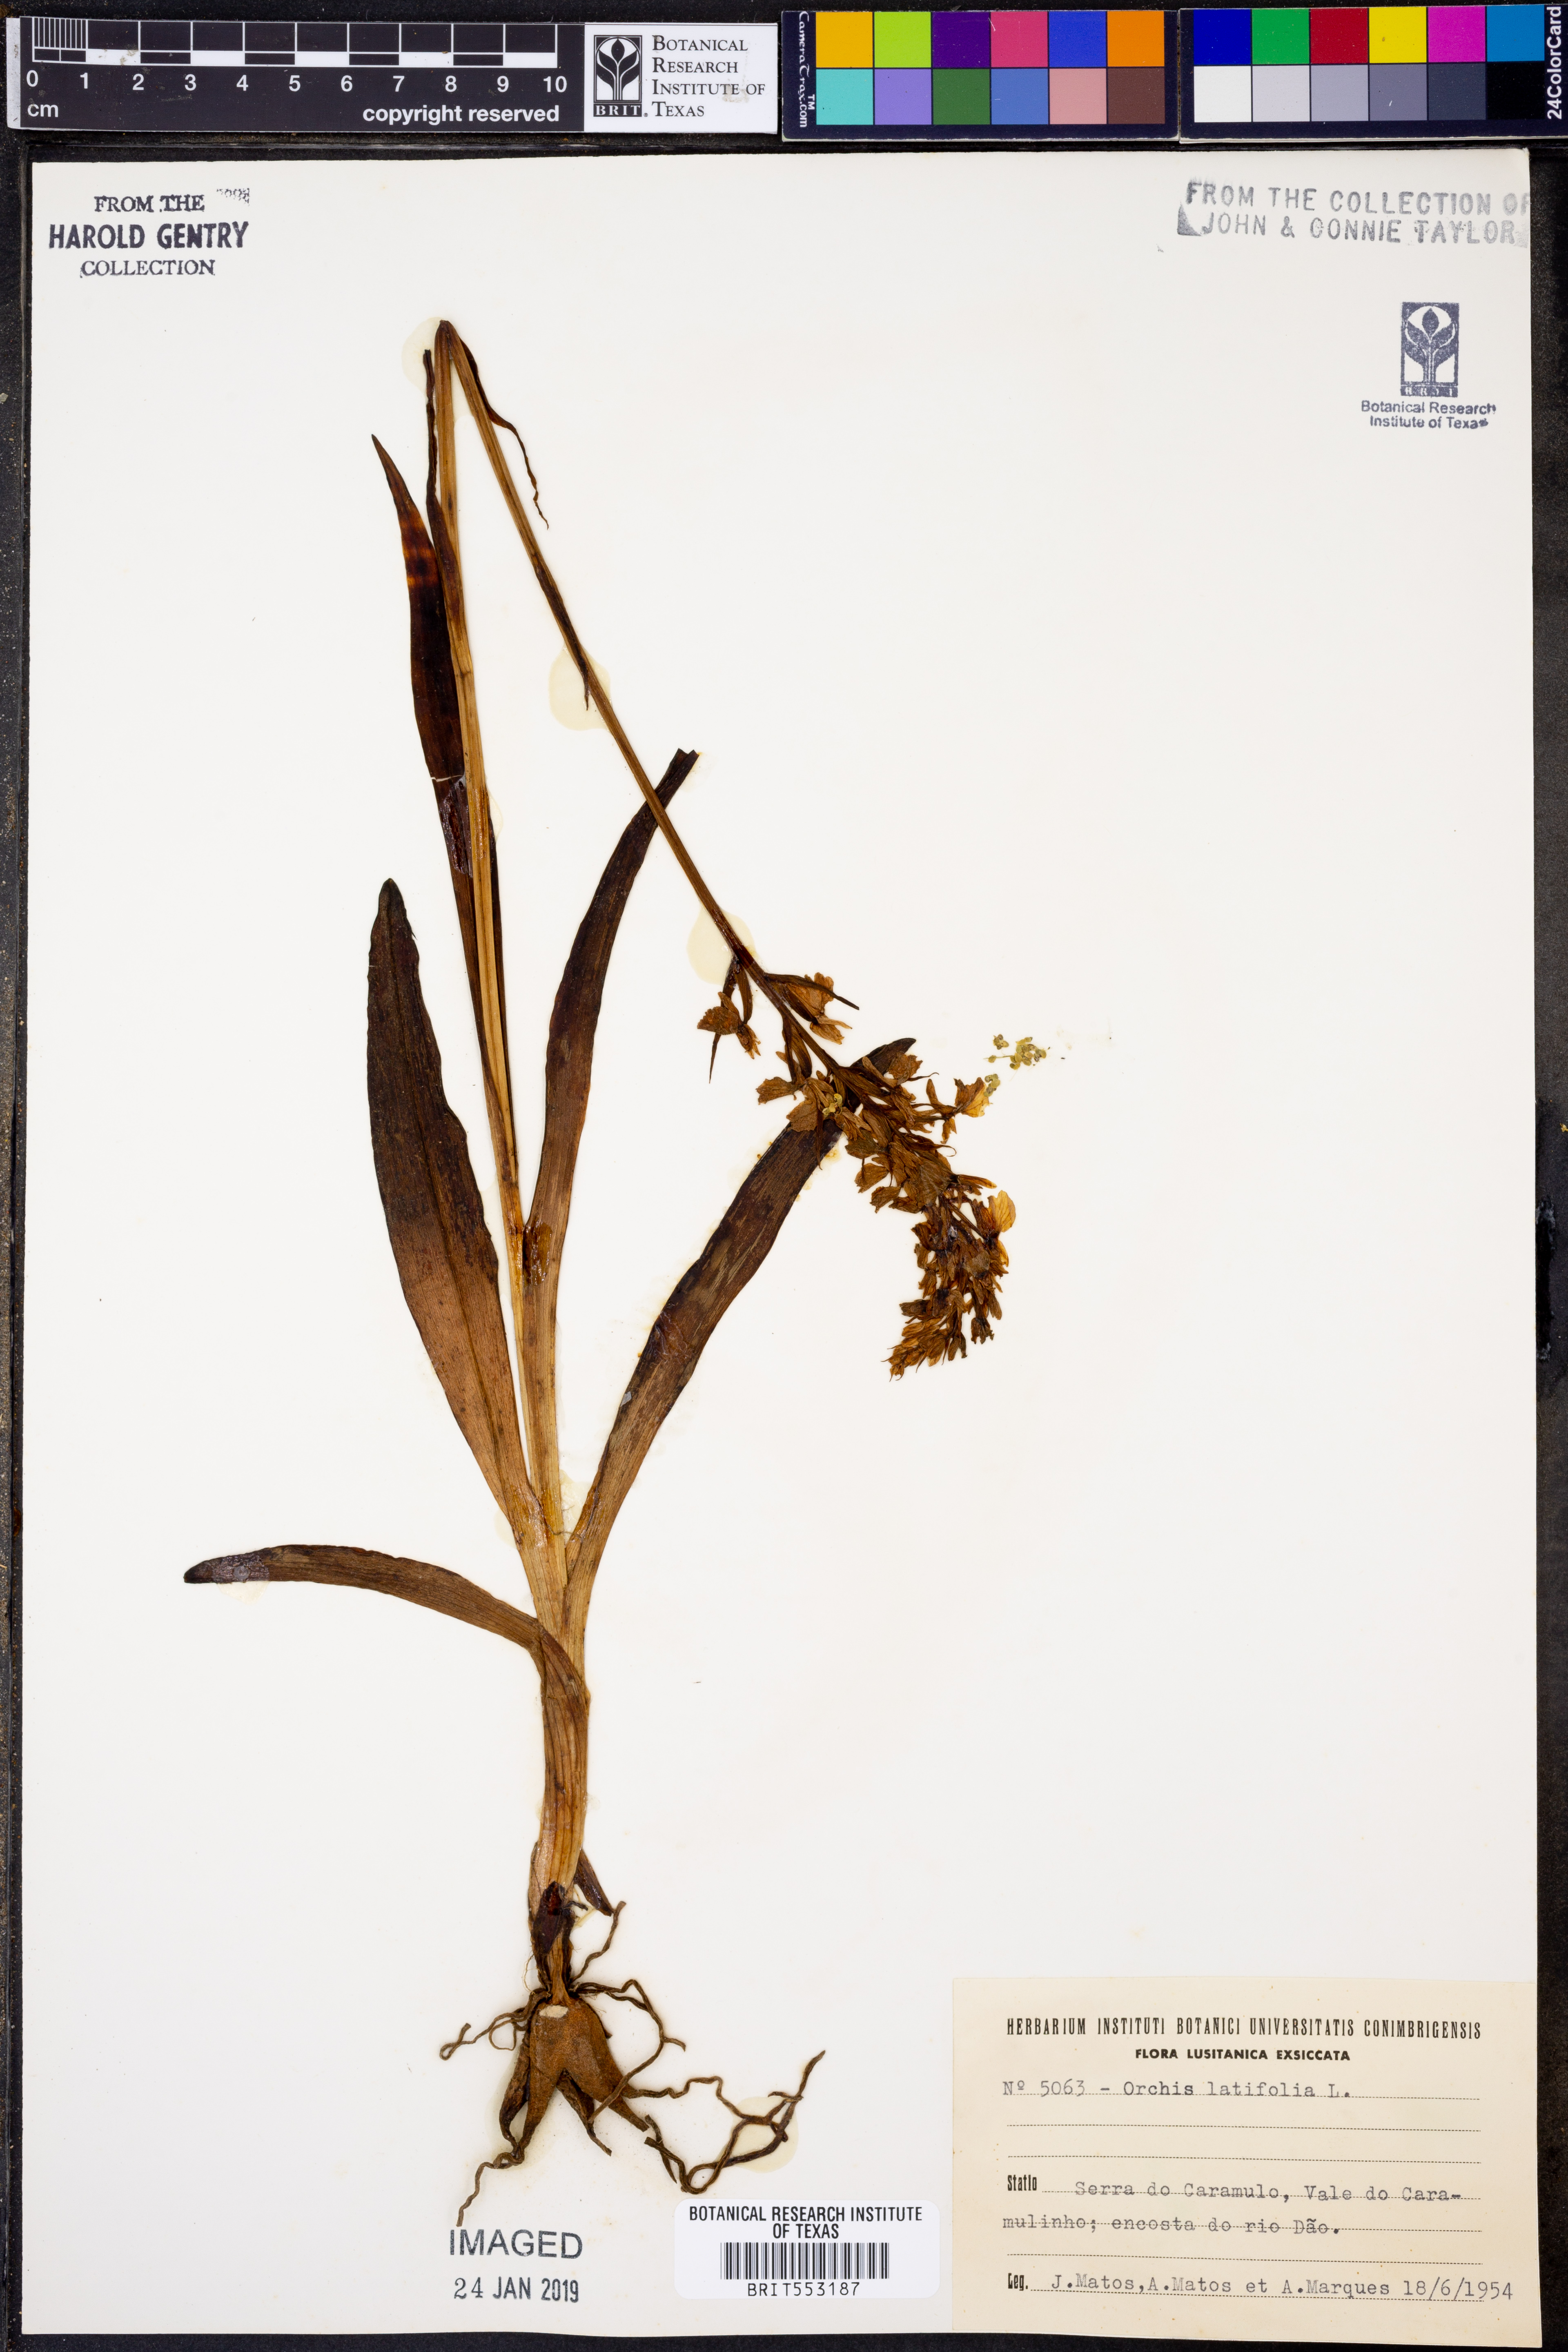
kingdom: Plantae
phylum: Tracheophyta
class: Liliopsida
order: Asparagales
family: Orchidaceae
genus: Dactylorhiza
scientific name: Dactylorhiza incarnata
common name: Early marsh-orchid
